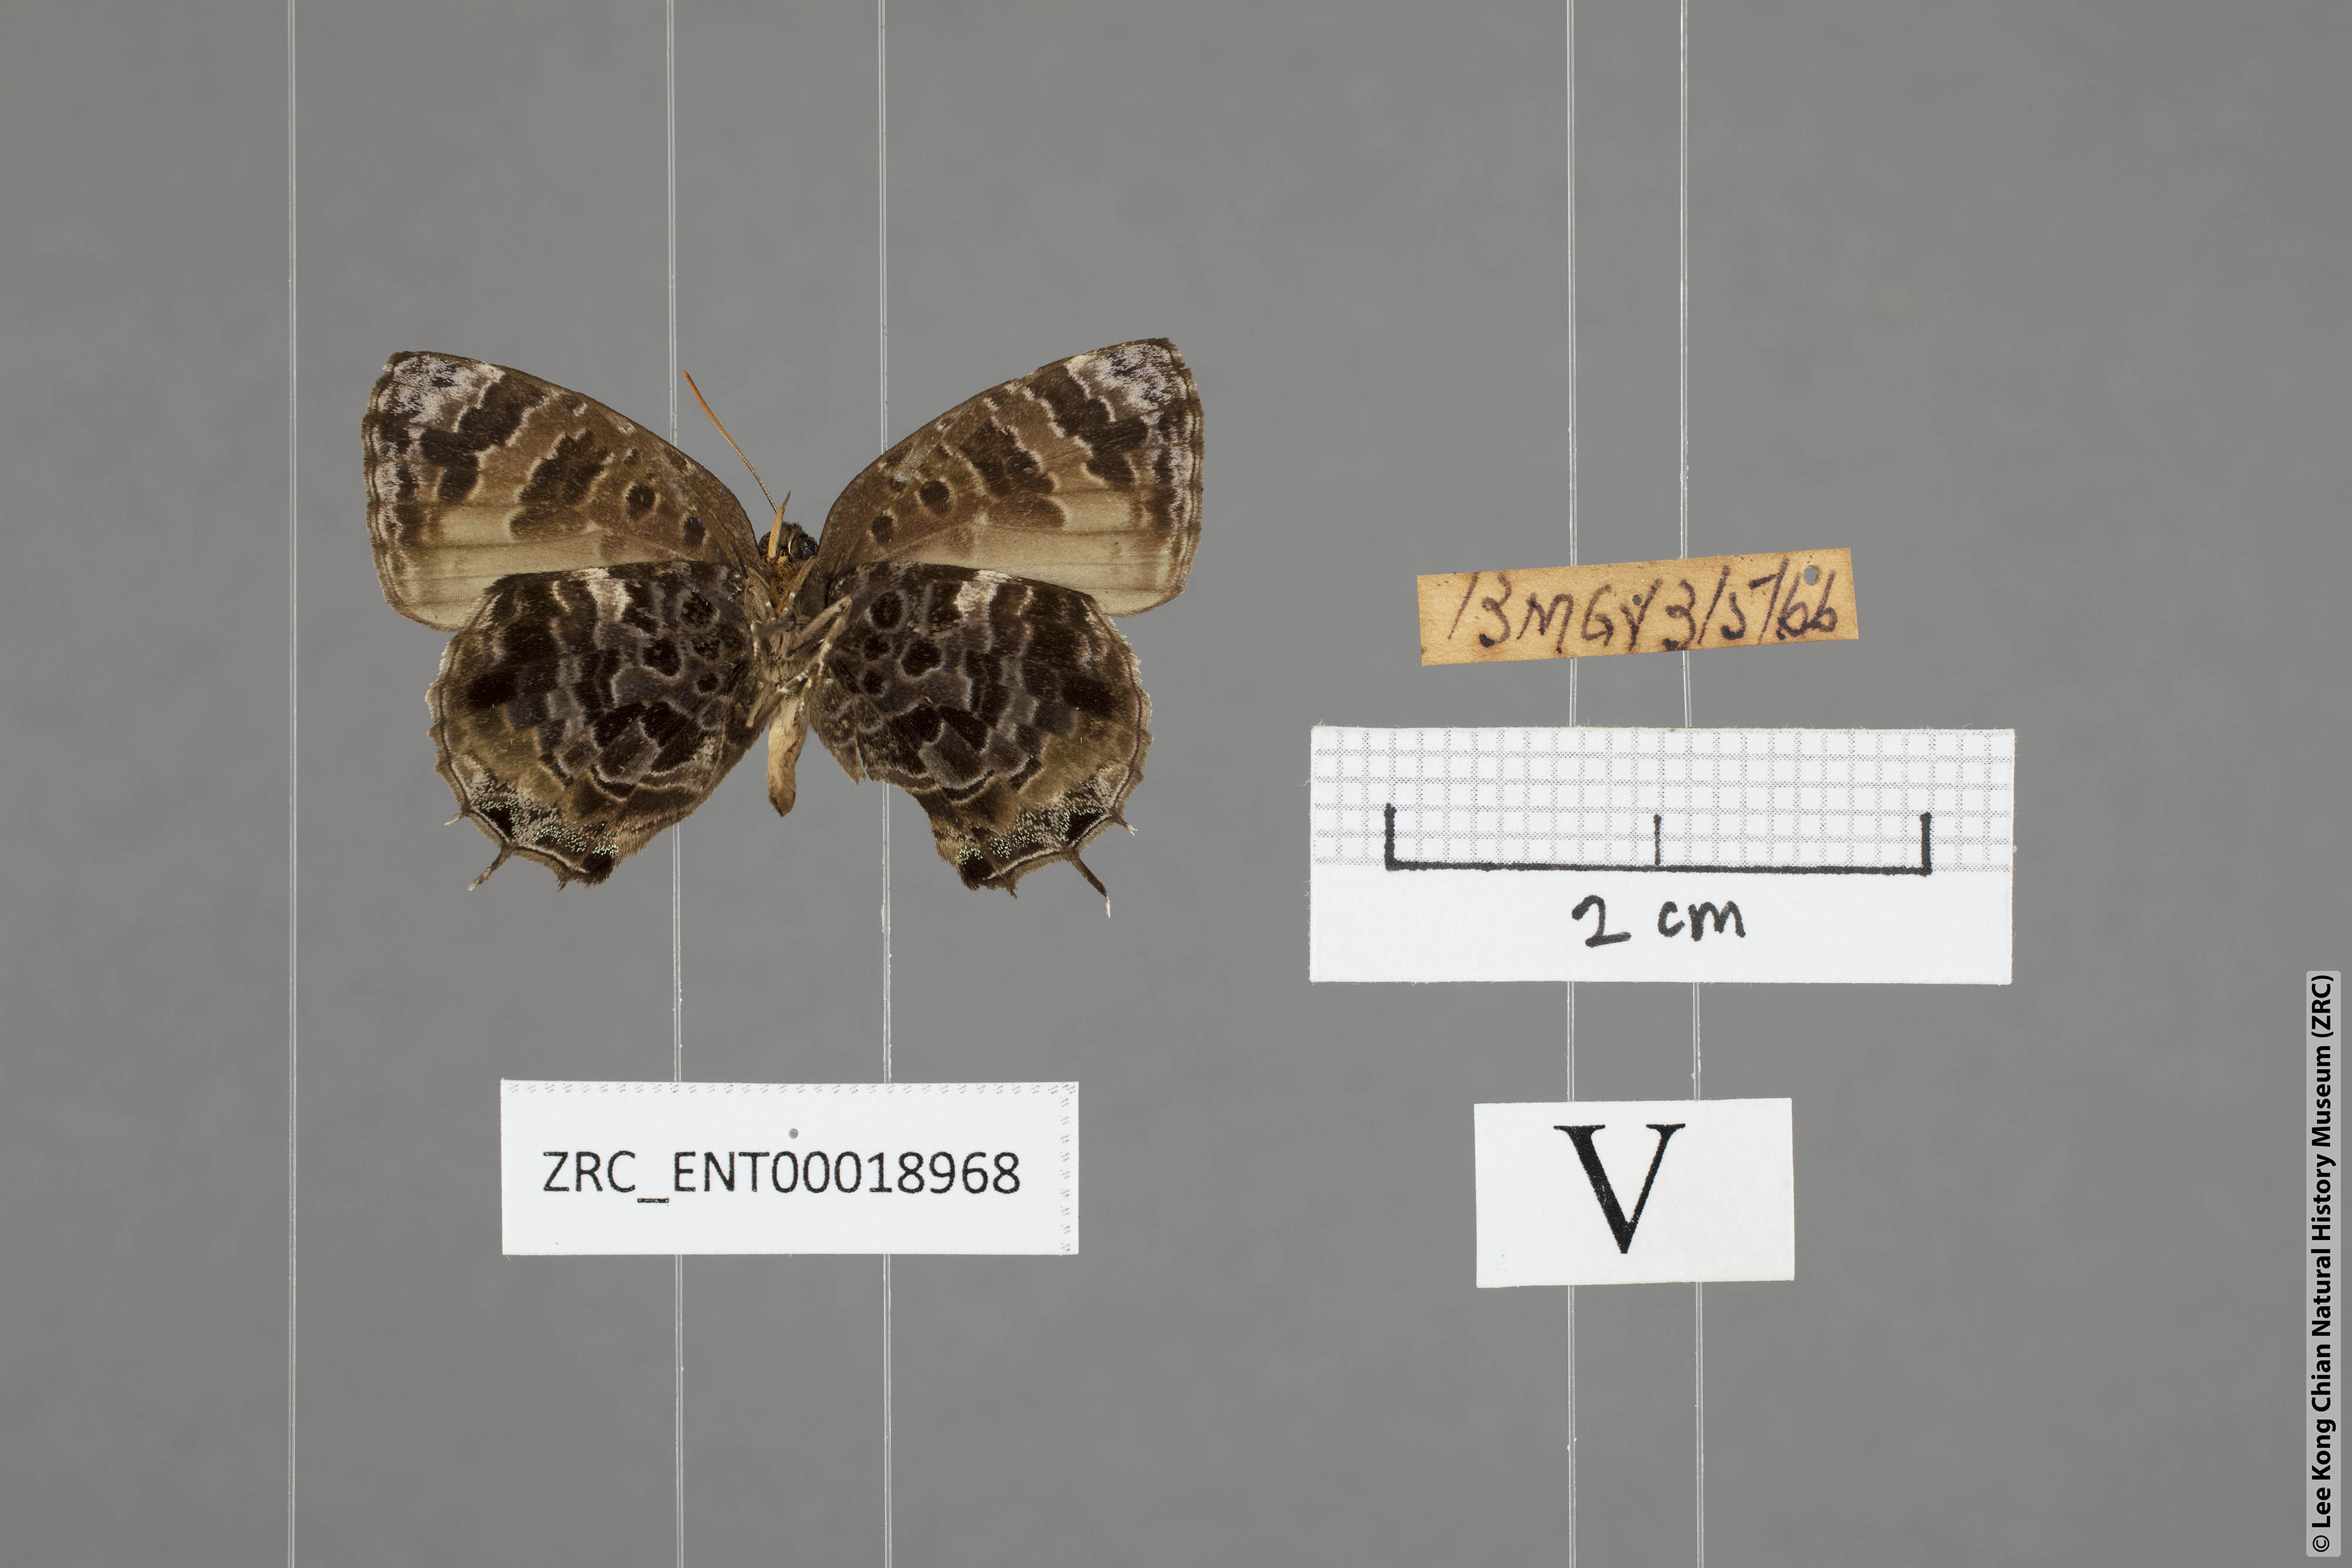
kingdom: Animalia
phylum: Arthropoda
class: Insecta
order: Lepidoptera
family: Lycaenidae
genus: Arhopala
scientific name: Arhopala abseus
